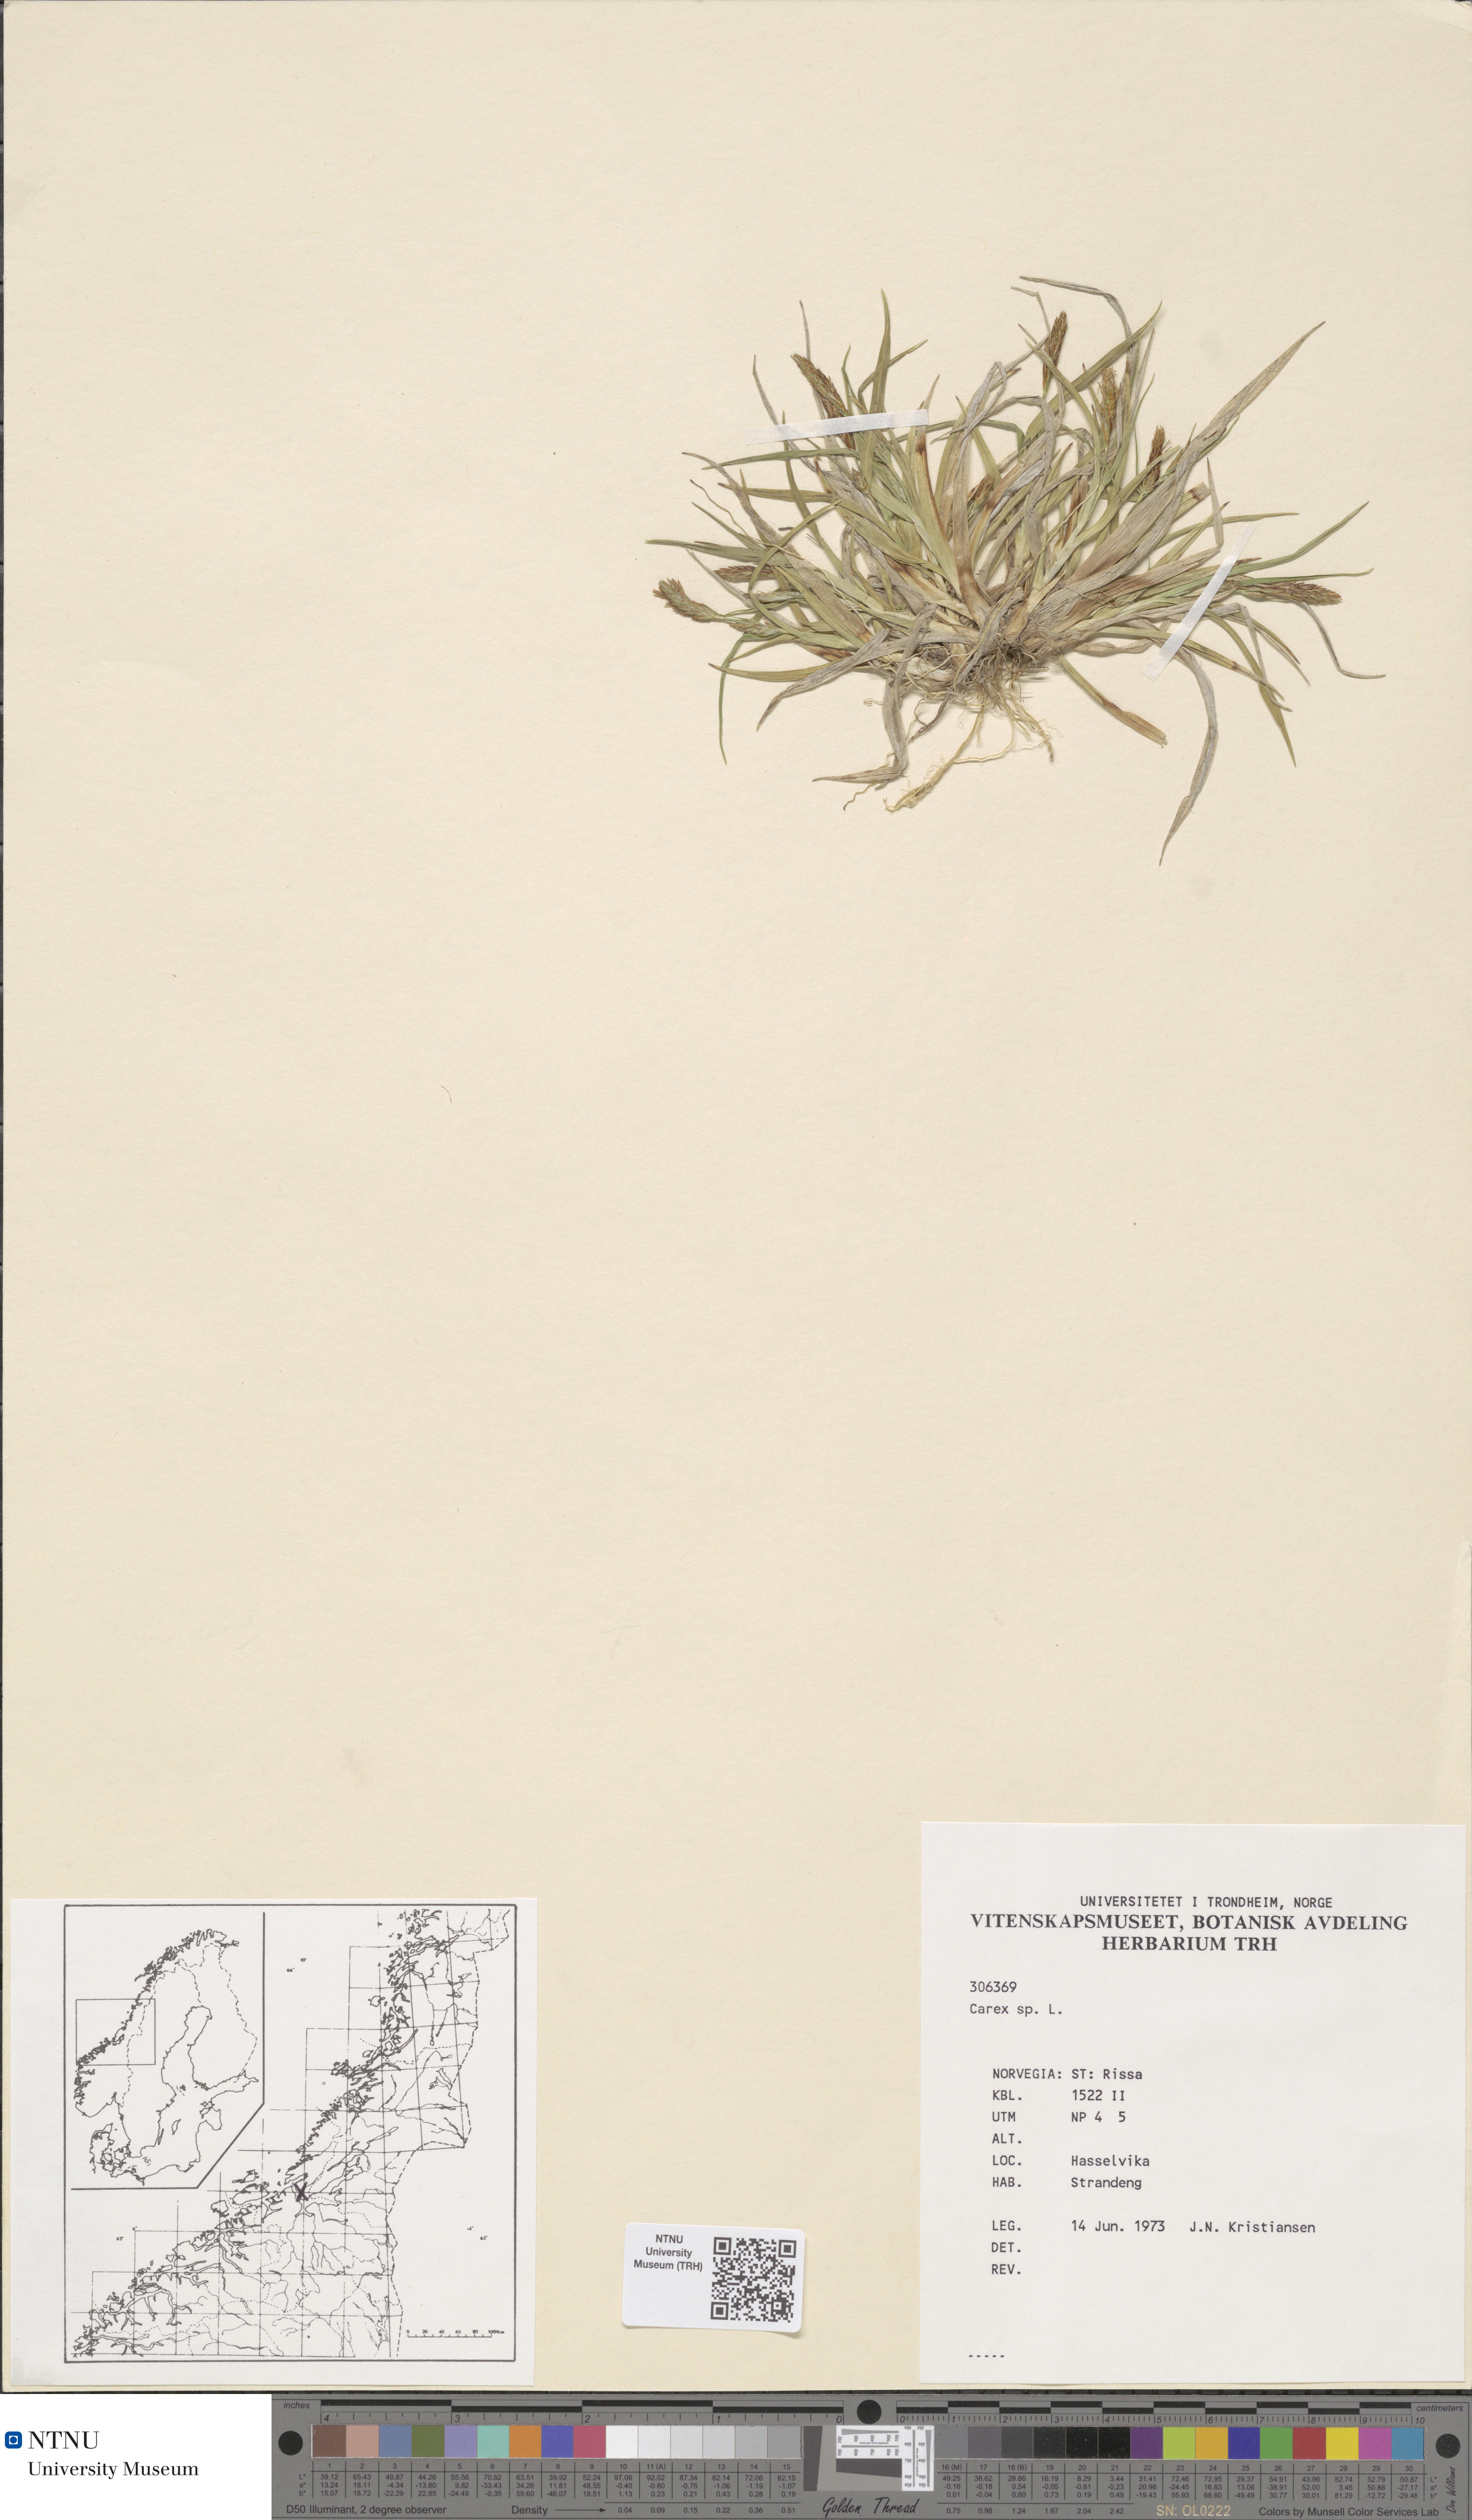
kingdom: Plantae
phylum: Tracheophyta
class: Liliopsida
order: Poales
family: Cyperaceae
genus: Carex
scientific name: Carex salina
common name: Saltmarsh sedge
